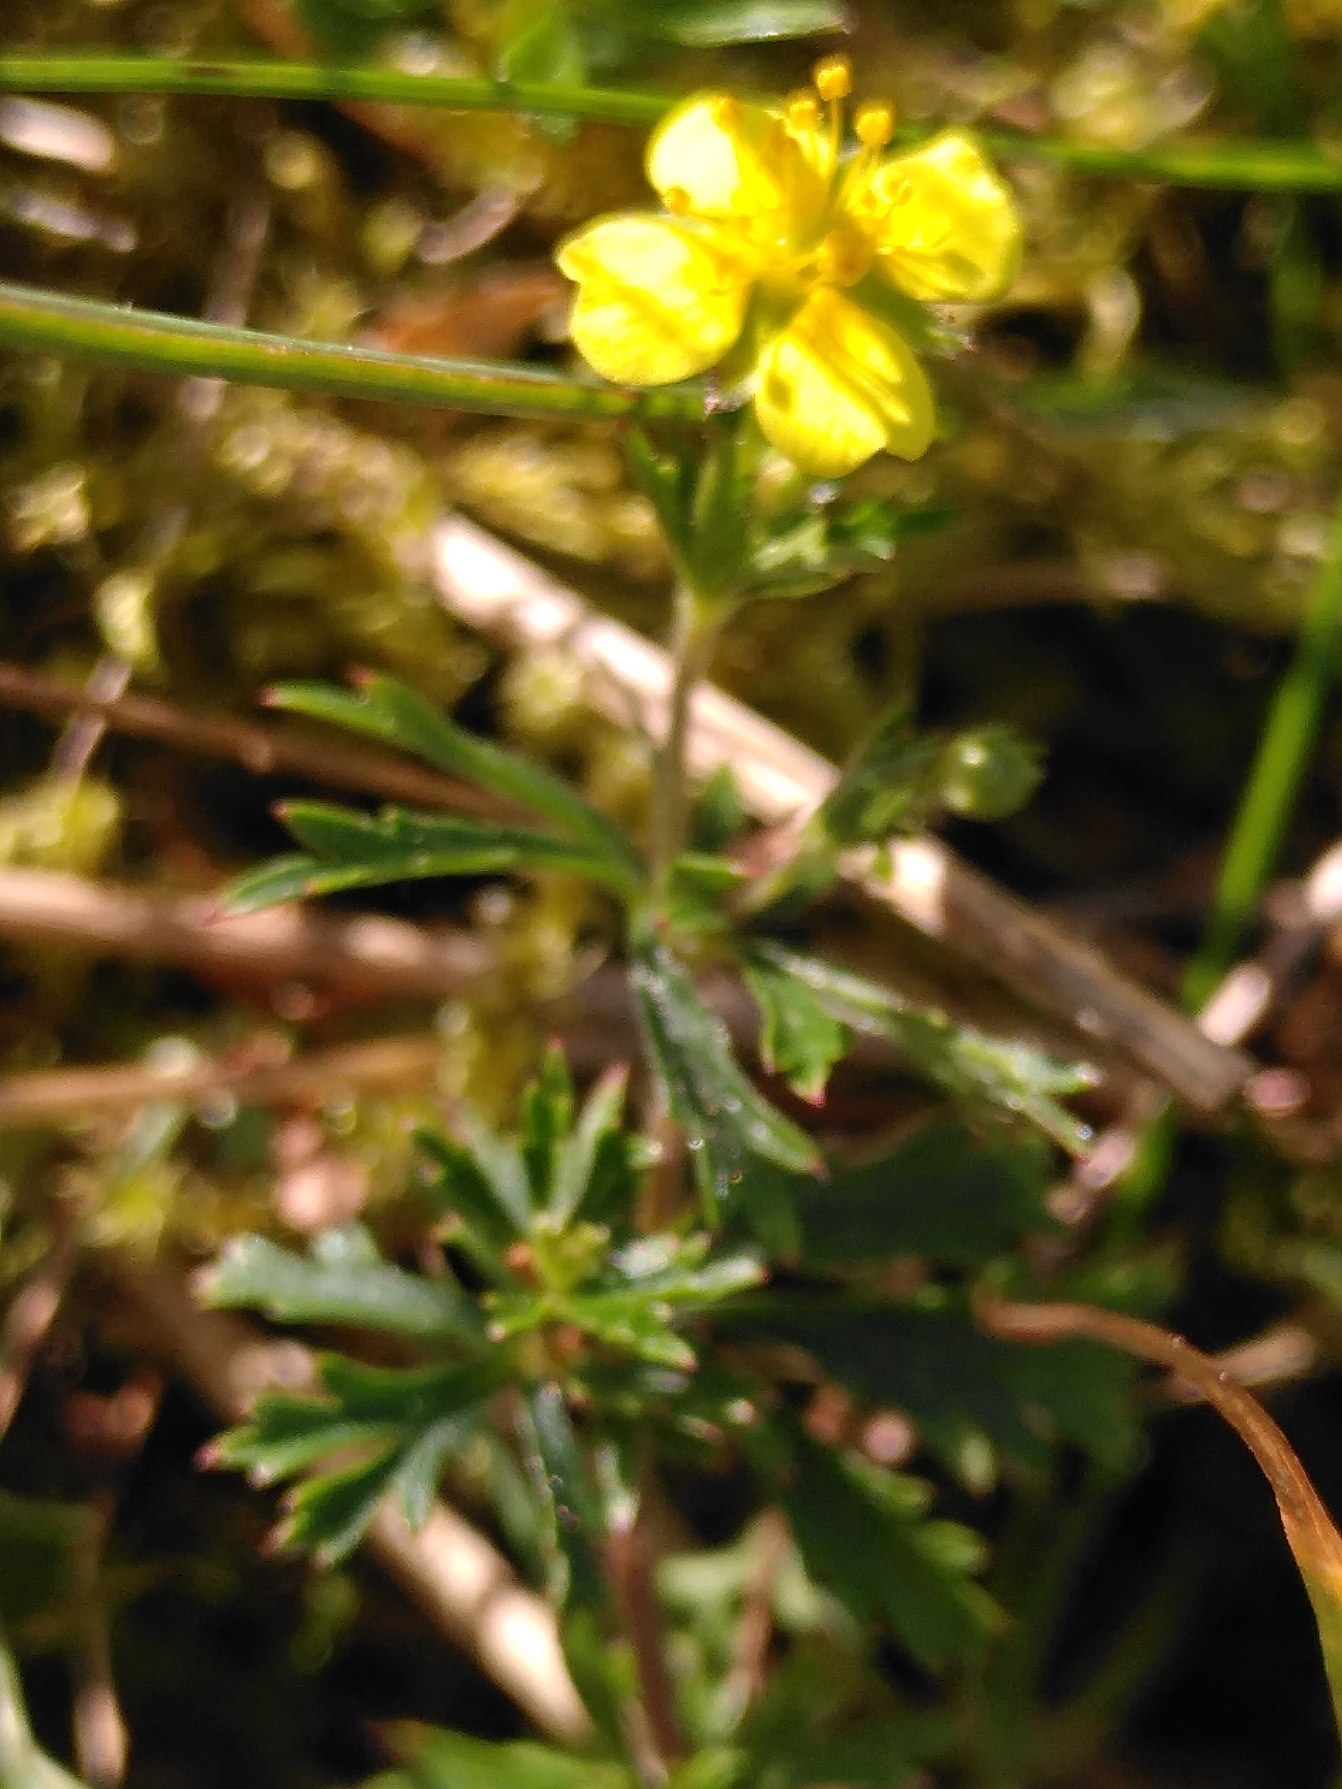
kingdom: Plantae
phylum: Tracheophyta
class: Magnoliopsida
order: Rosales
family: Rosaceae
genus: Potentilla
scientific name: Potentilla erecta
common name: Tormentil
